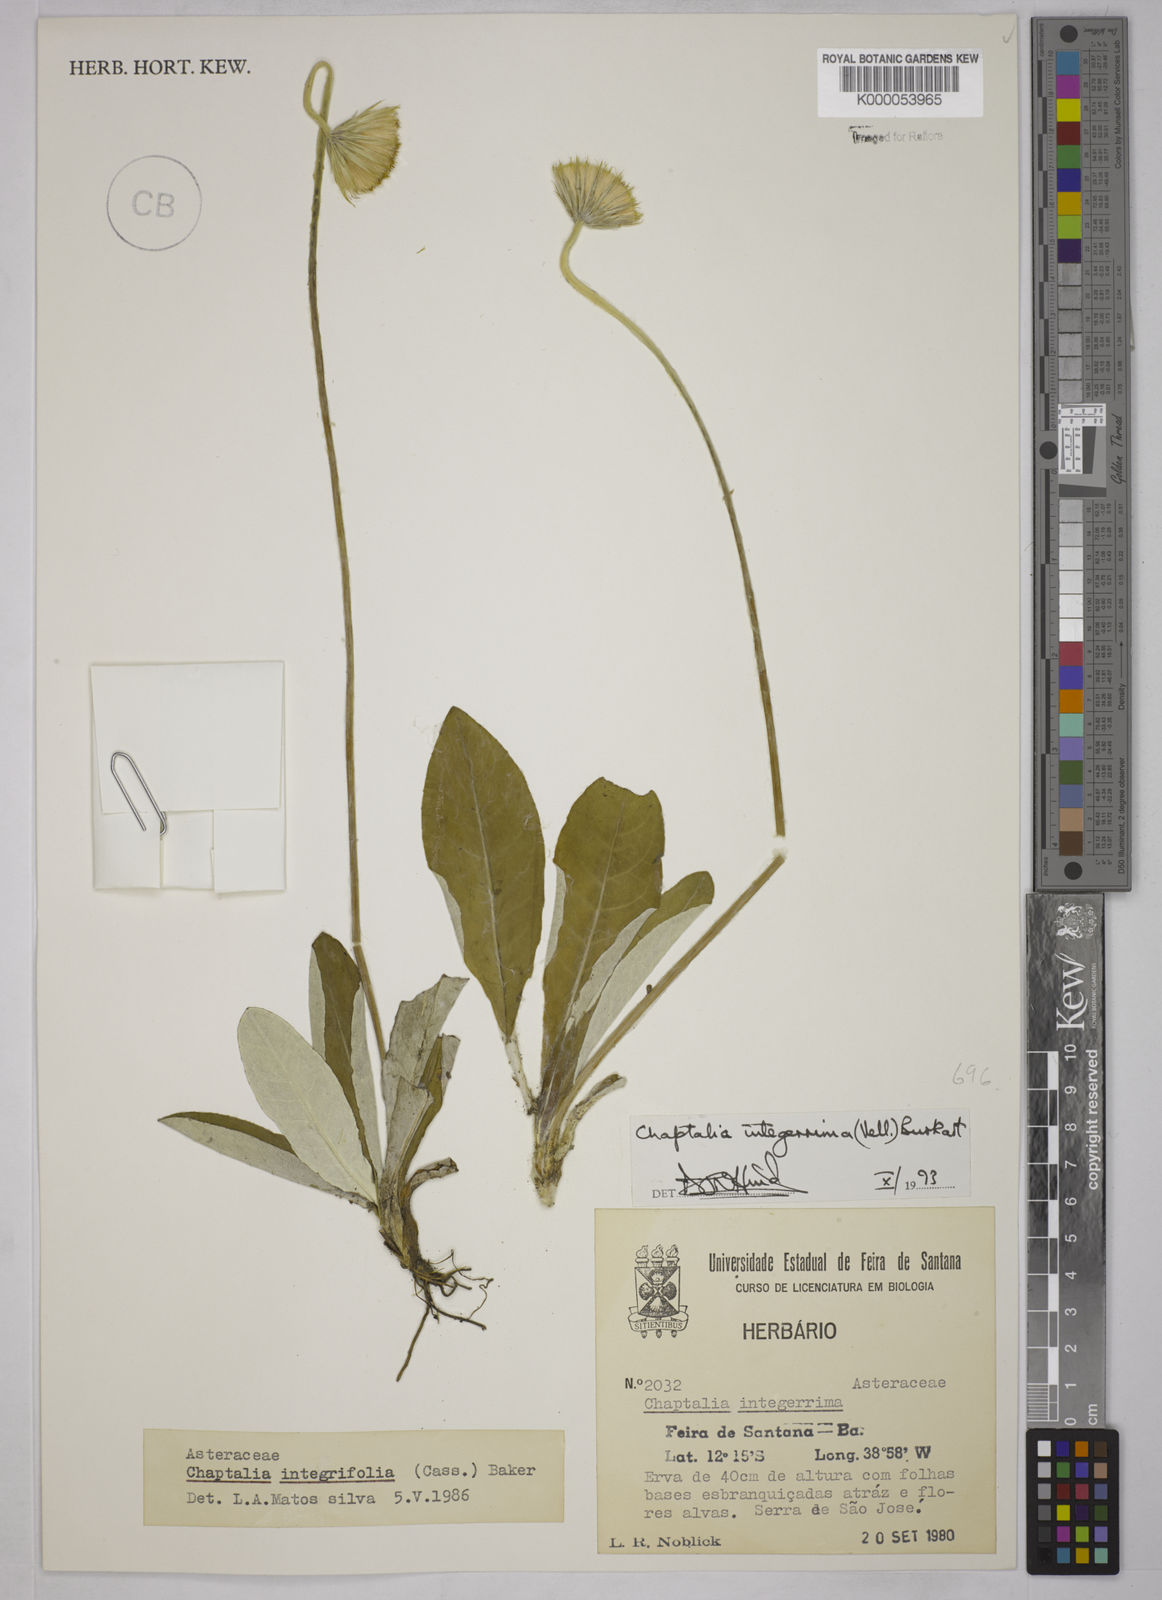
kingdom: Plantae
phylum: Tracheophyta
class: Magnoliopsida
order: Asterales
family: Asteraceae
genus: Chaptalia
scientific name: Chaptalia integerrima
